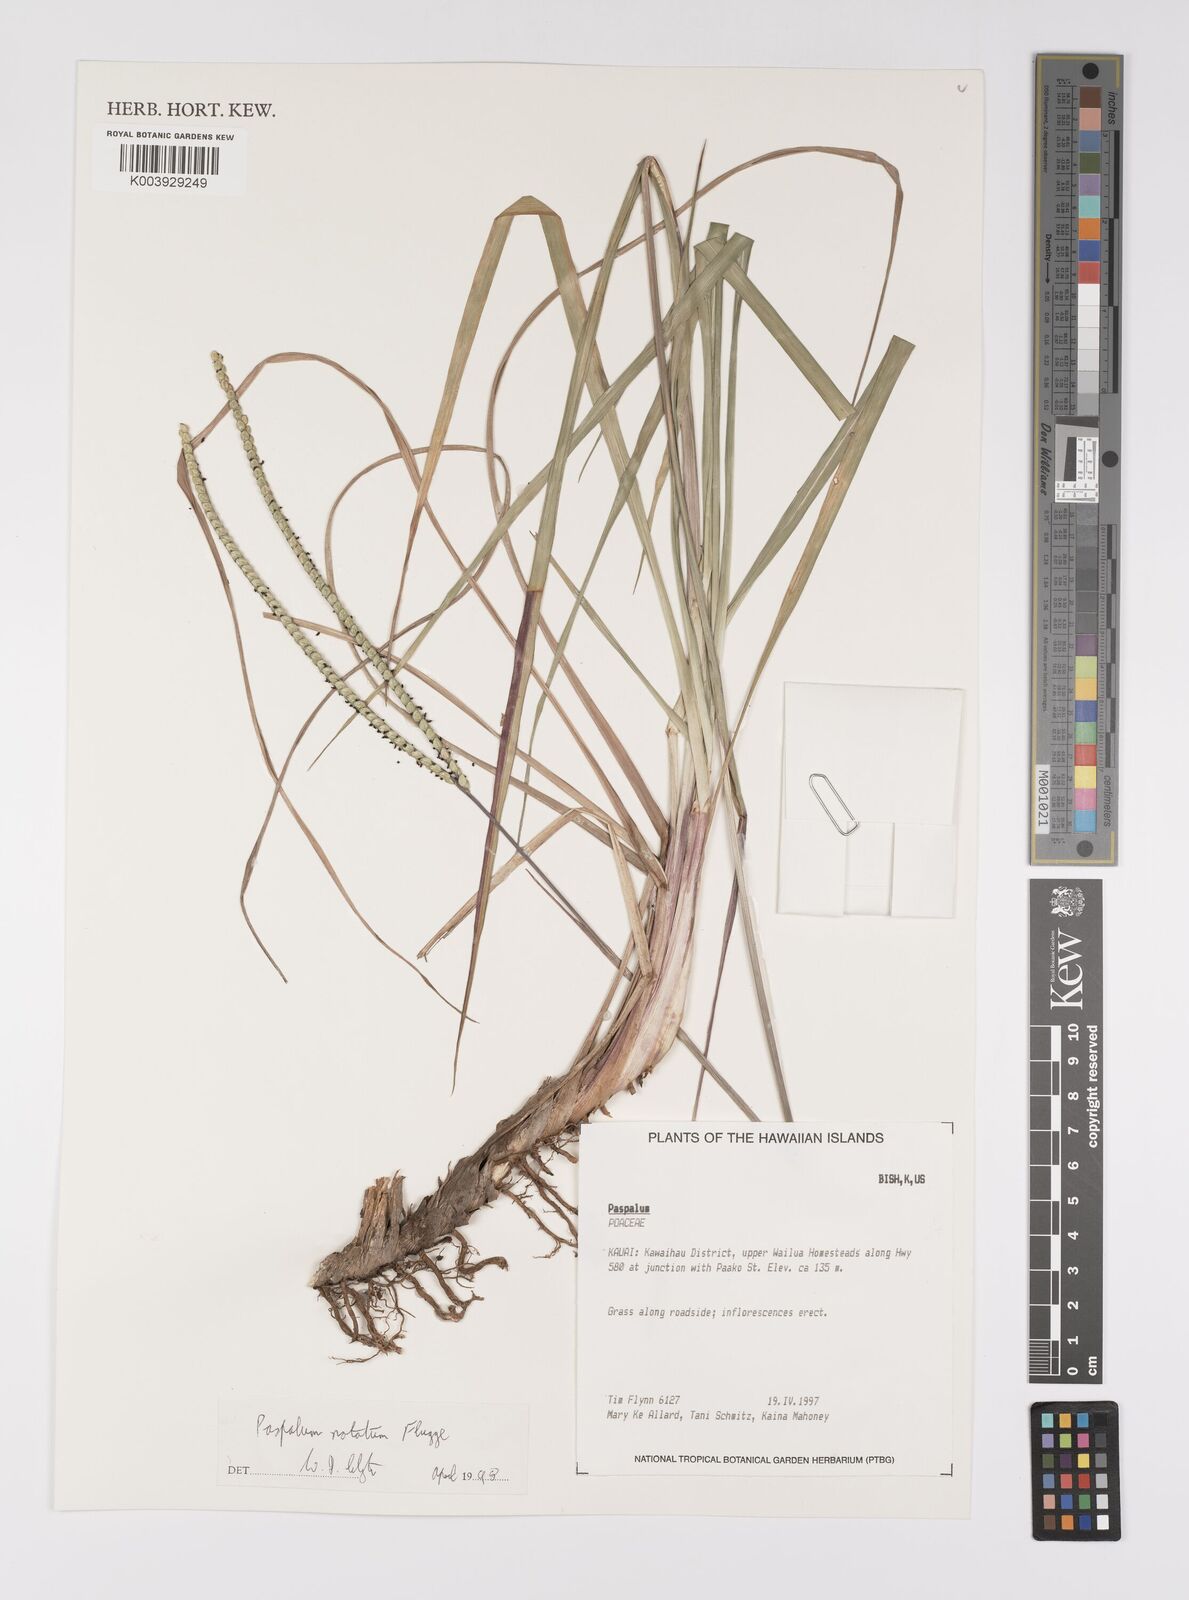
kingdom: Plantae
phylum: Tracheophyta
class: Liliopsida
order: Poales
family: Poaceae
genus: Paspalum
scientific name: Paspalum notatum
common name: Bahiagrass
